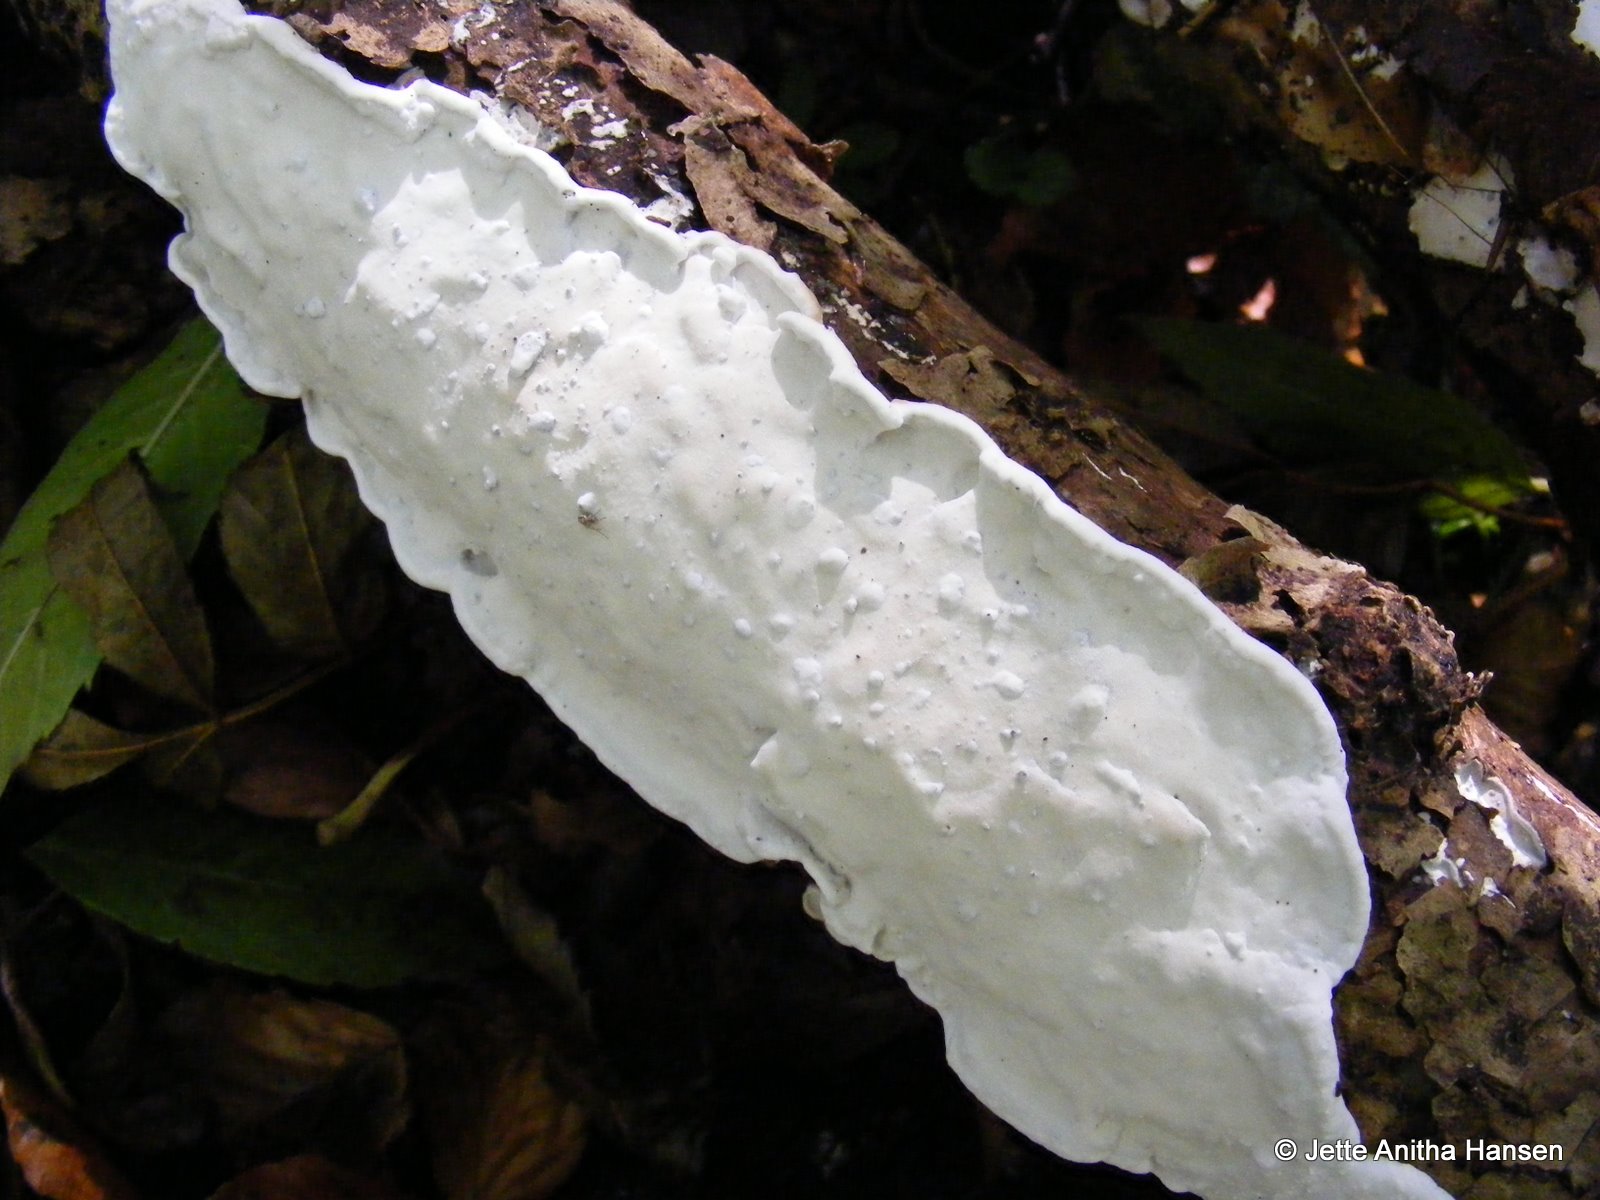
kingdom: Fungi
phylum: Basidiomycota
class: Agaricomycetes
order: Polyporales
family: Incrustoporiaceae
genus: Skeletocutis
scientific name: Skeletocutis nemoralis
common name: stor krystalporesvamp
